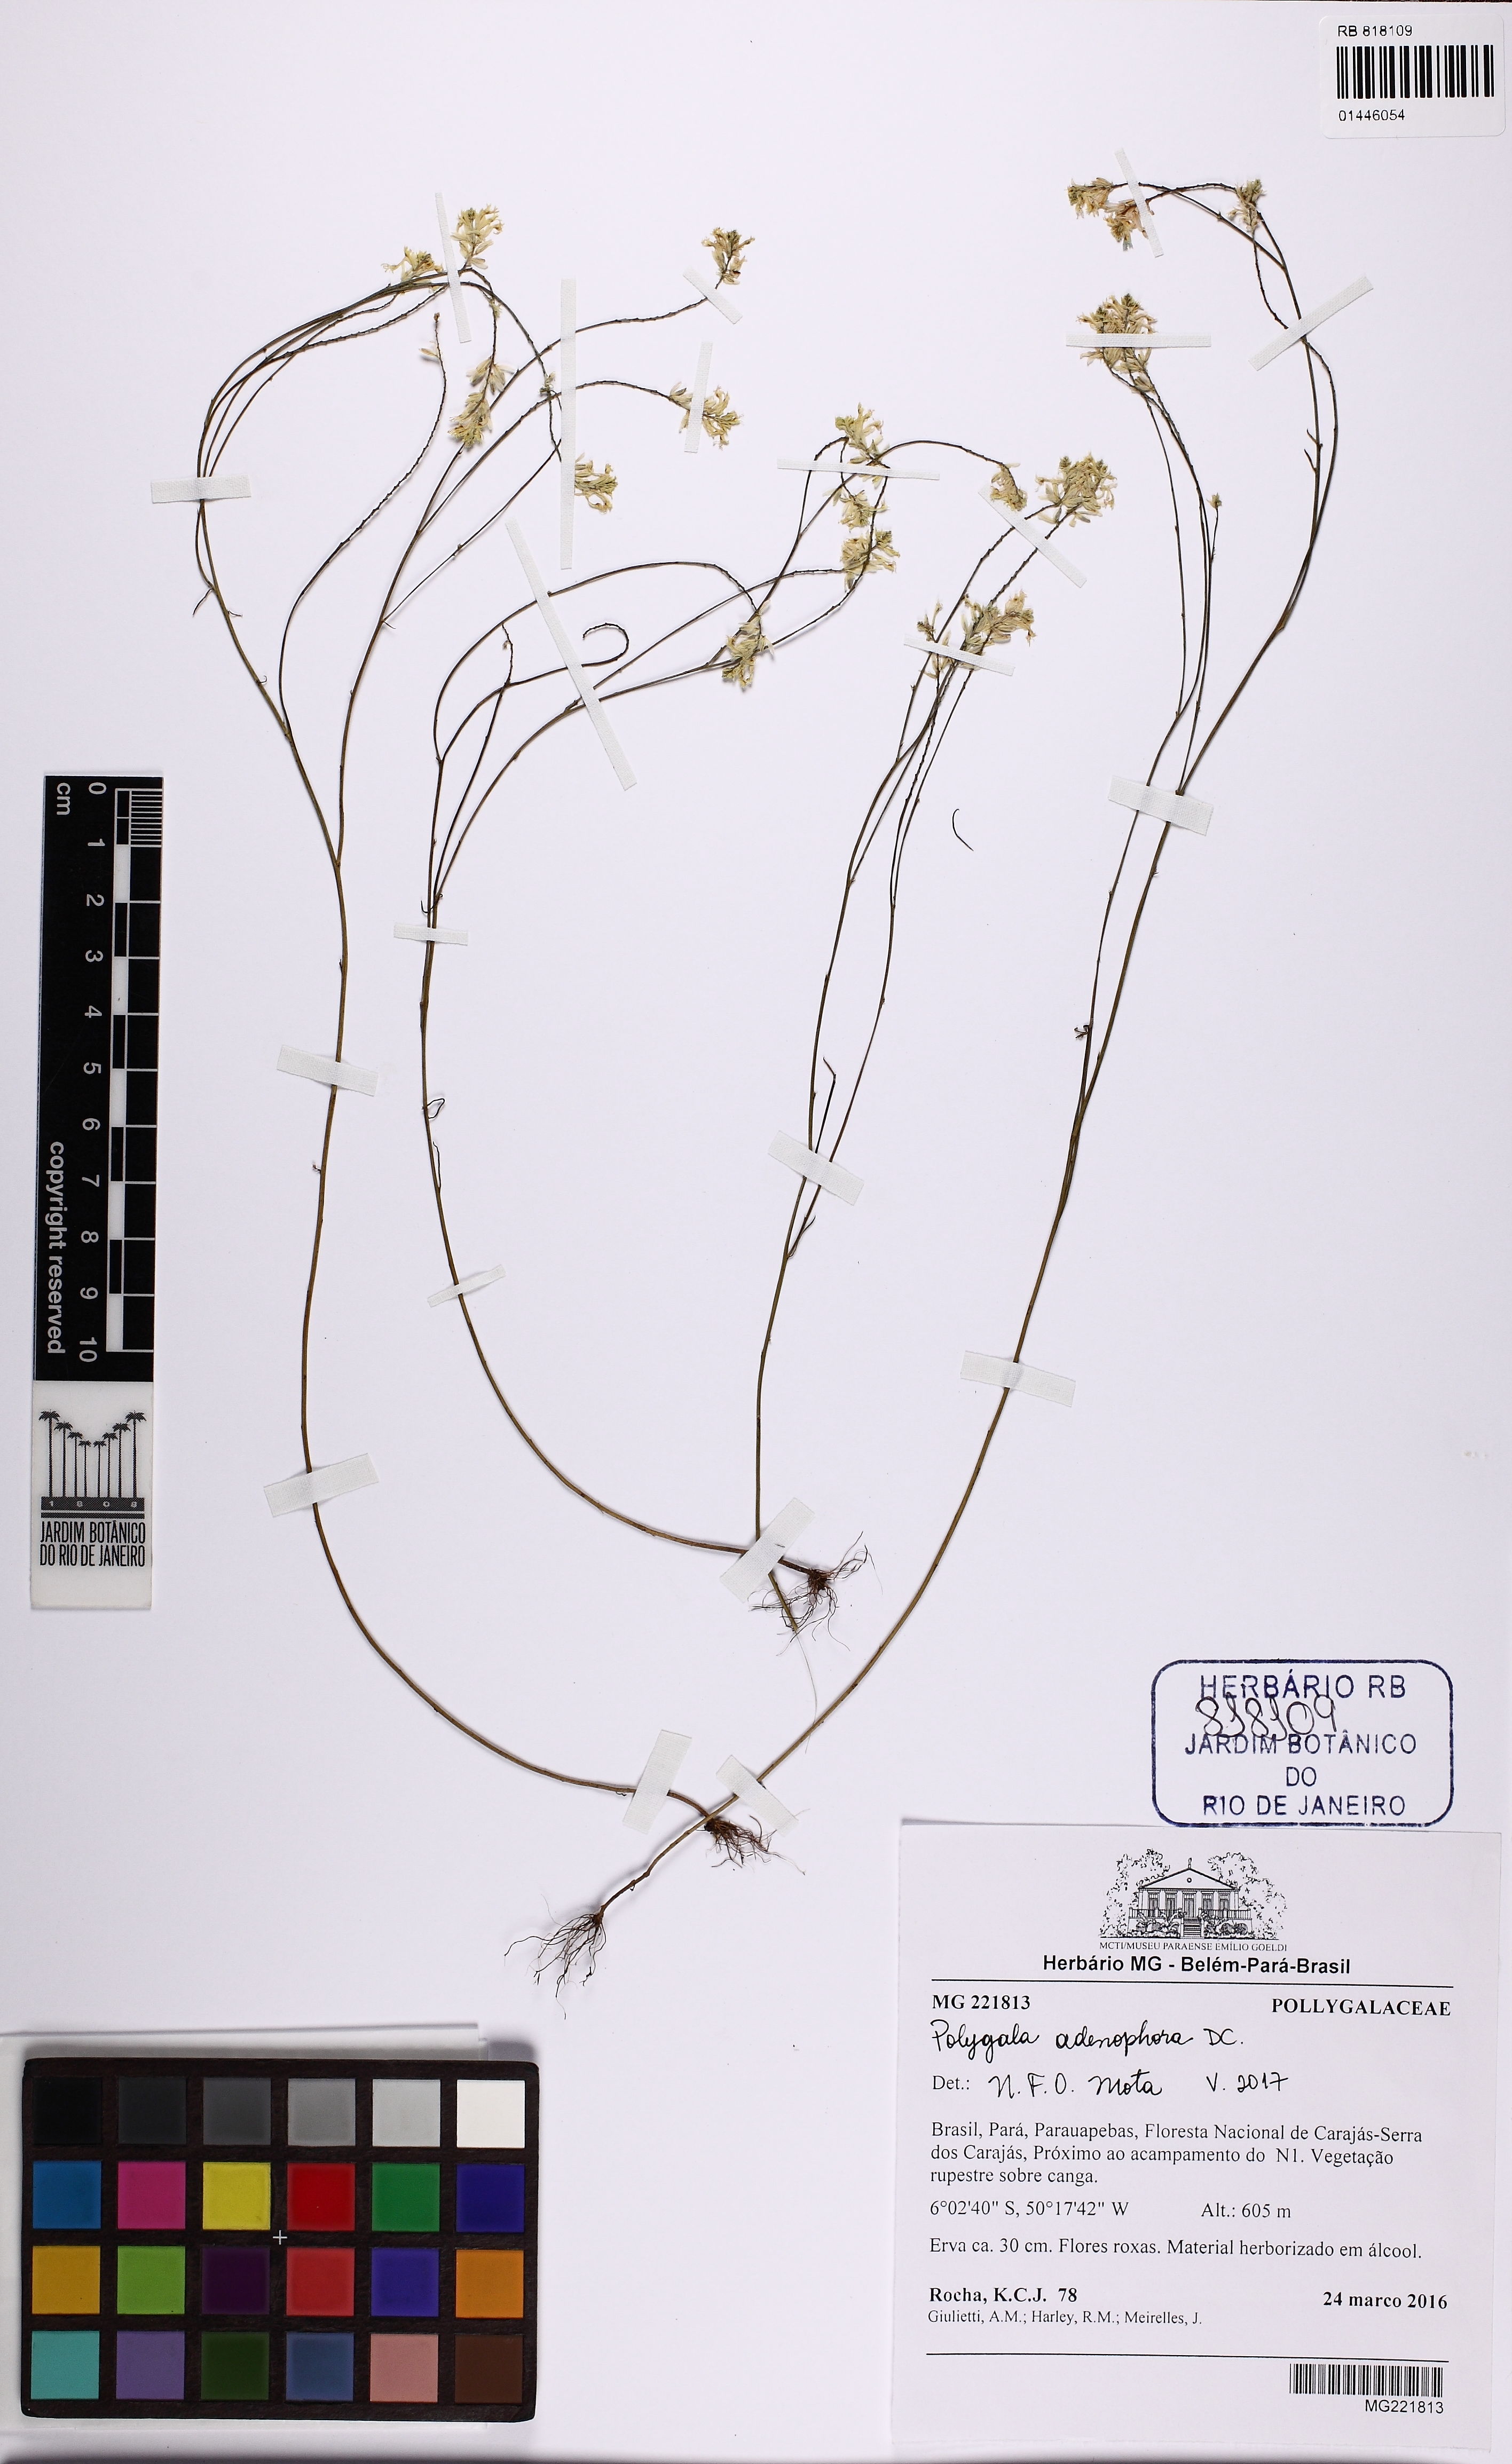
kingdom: Plantae
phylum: Tracheophyta
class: Magnoliopsida
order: Fabales
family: Polygalaceae
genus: Polygala
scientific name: Polygala adenophora
